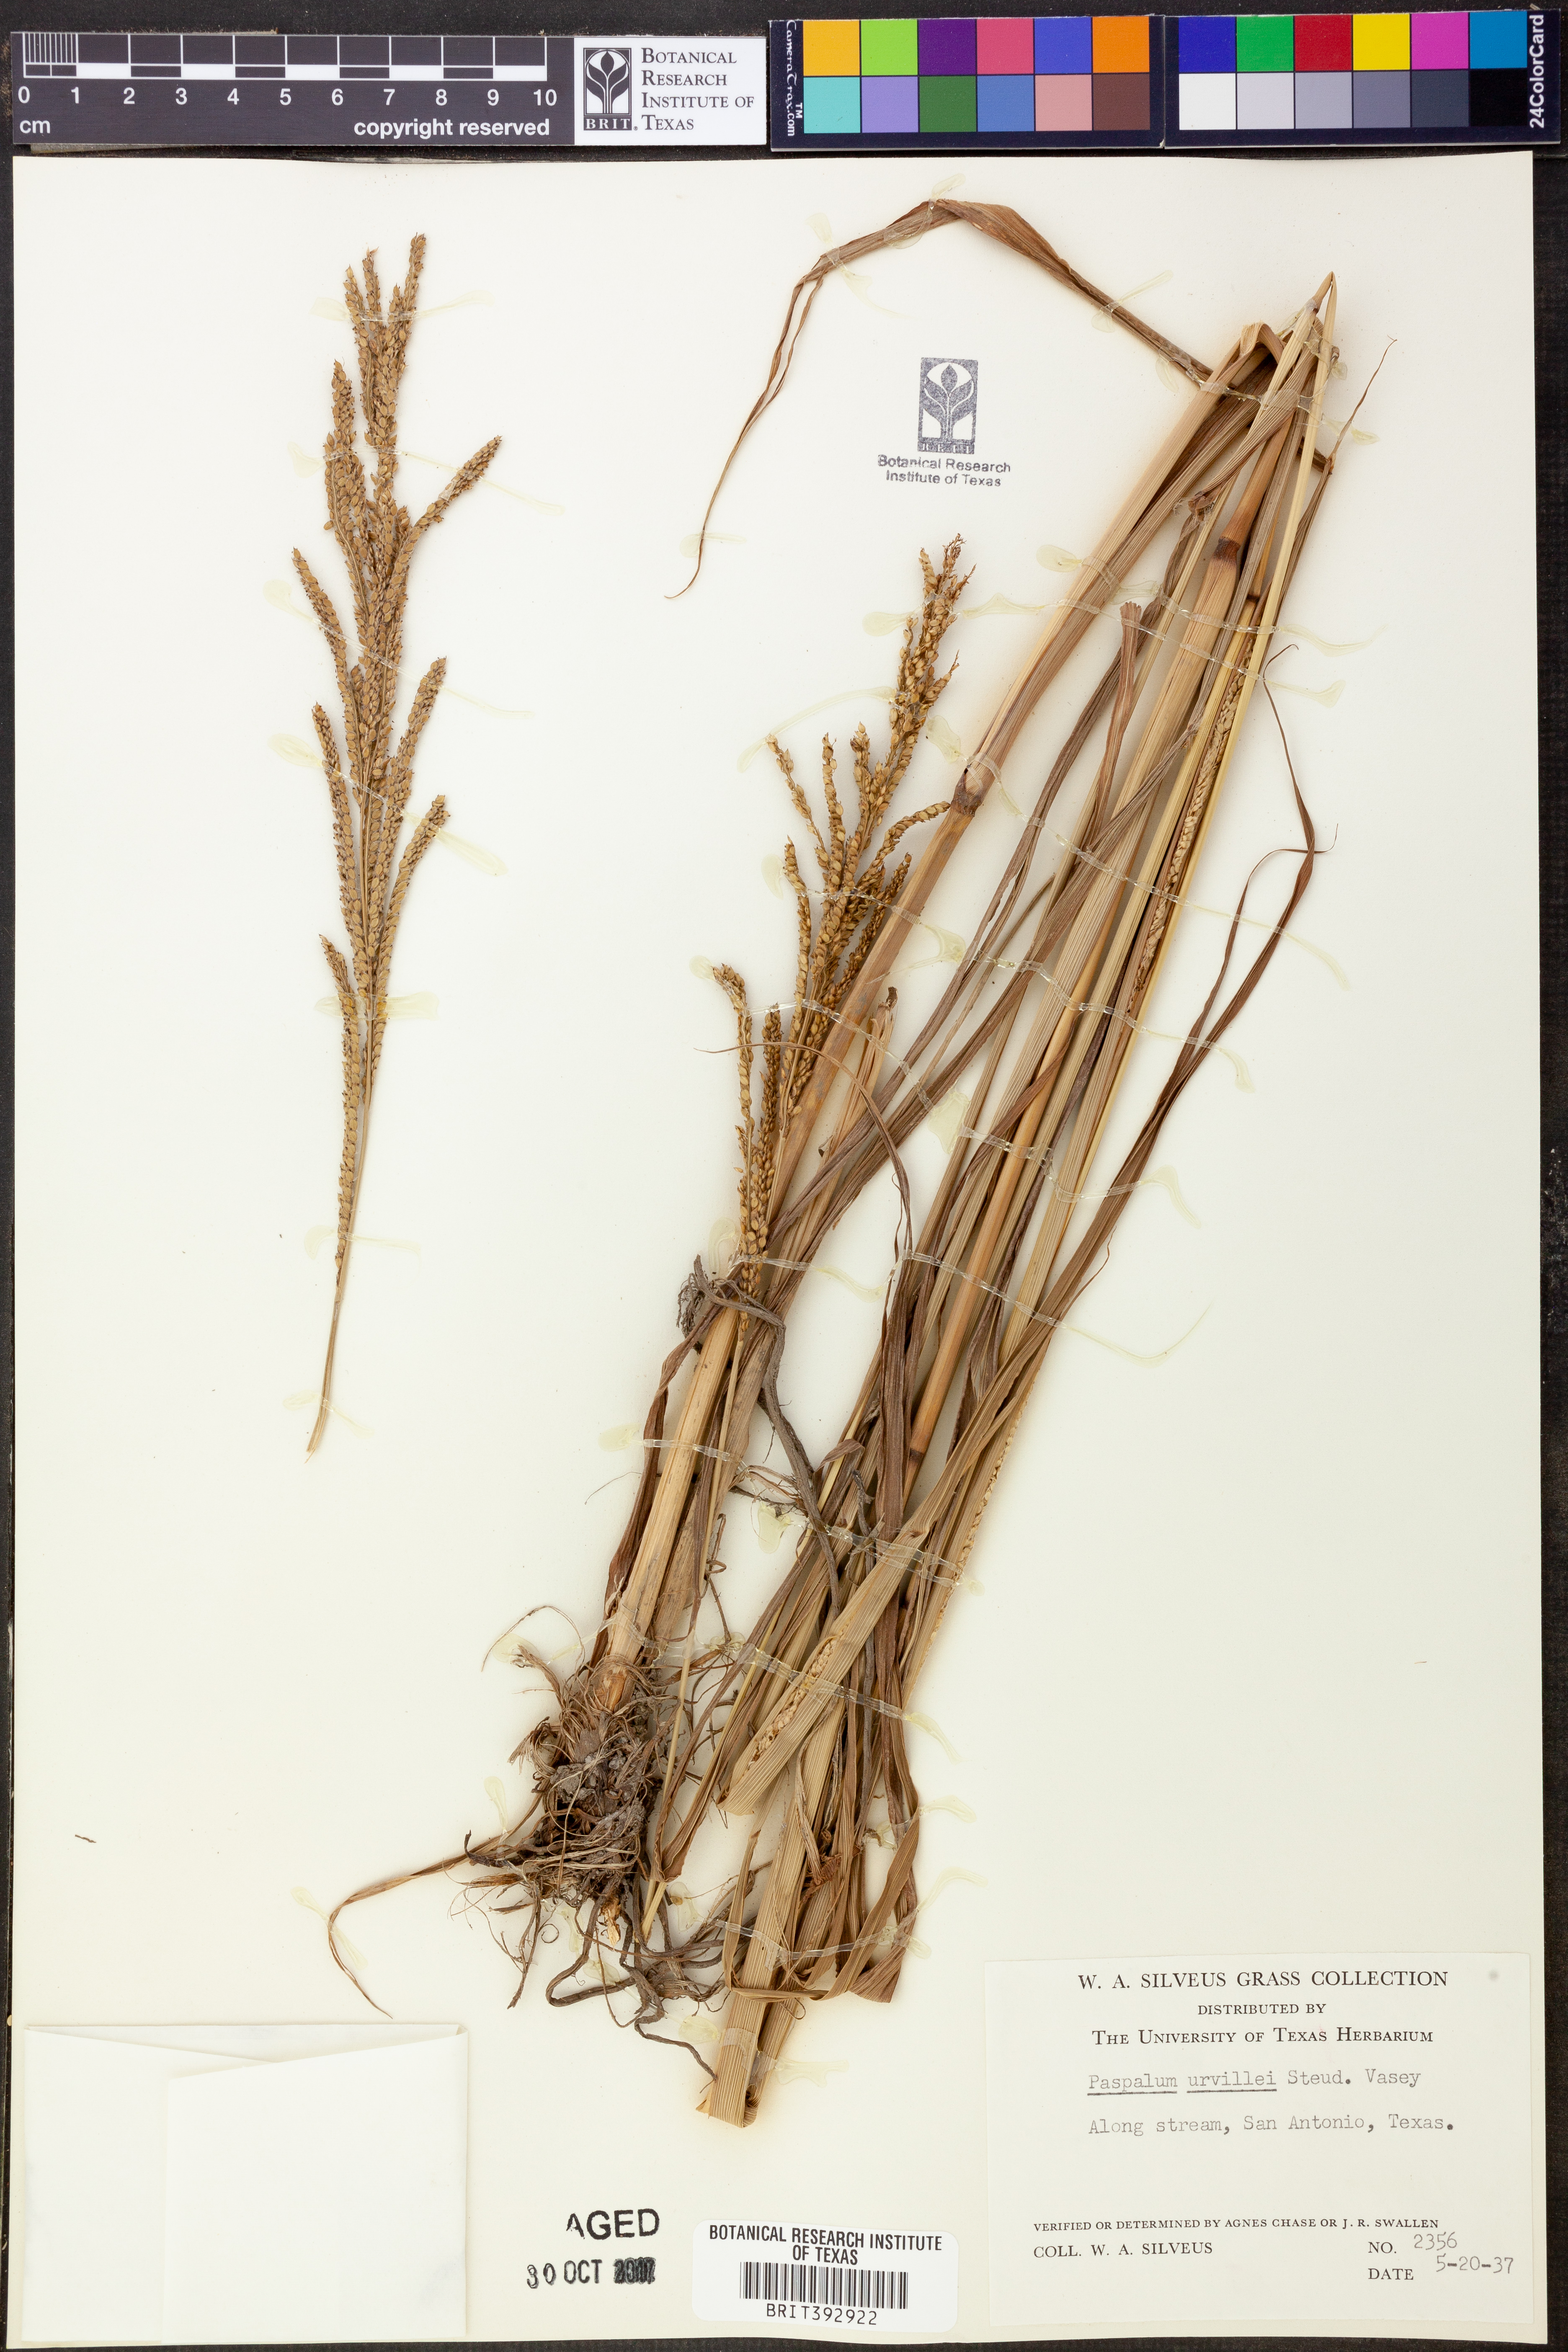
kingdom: Plantae
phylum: Tracheophyta
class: Liliopsida
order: Poales
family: Poaceae
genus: Paspalum
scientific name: Paspalum urvillei
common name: Vasey's grass
